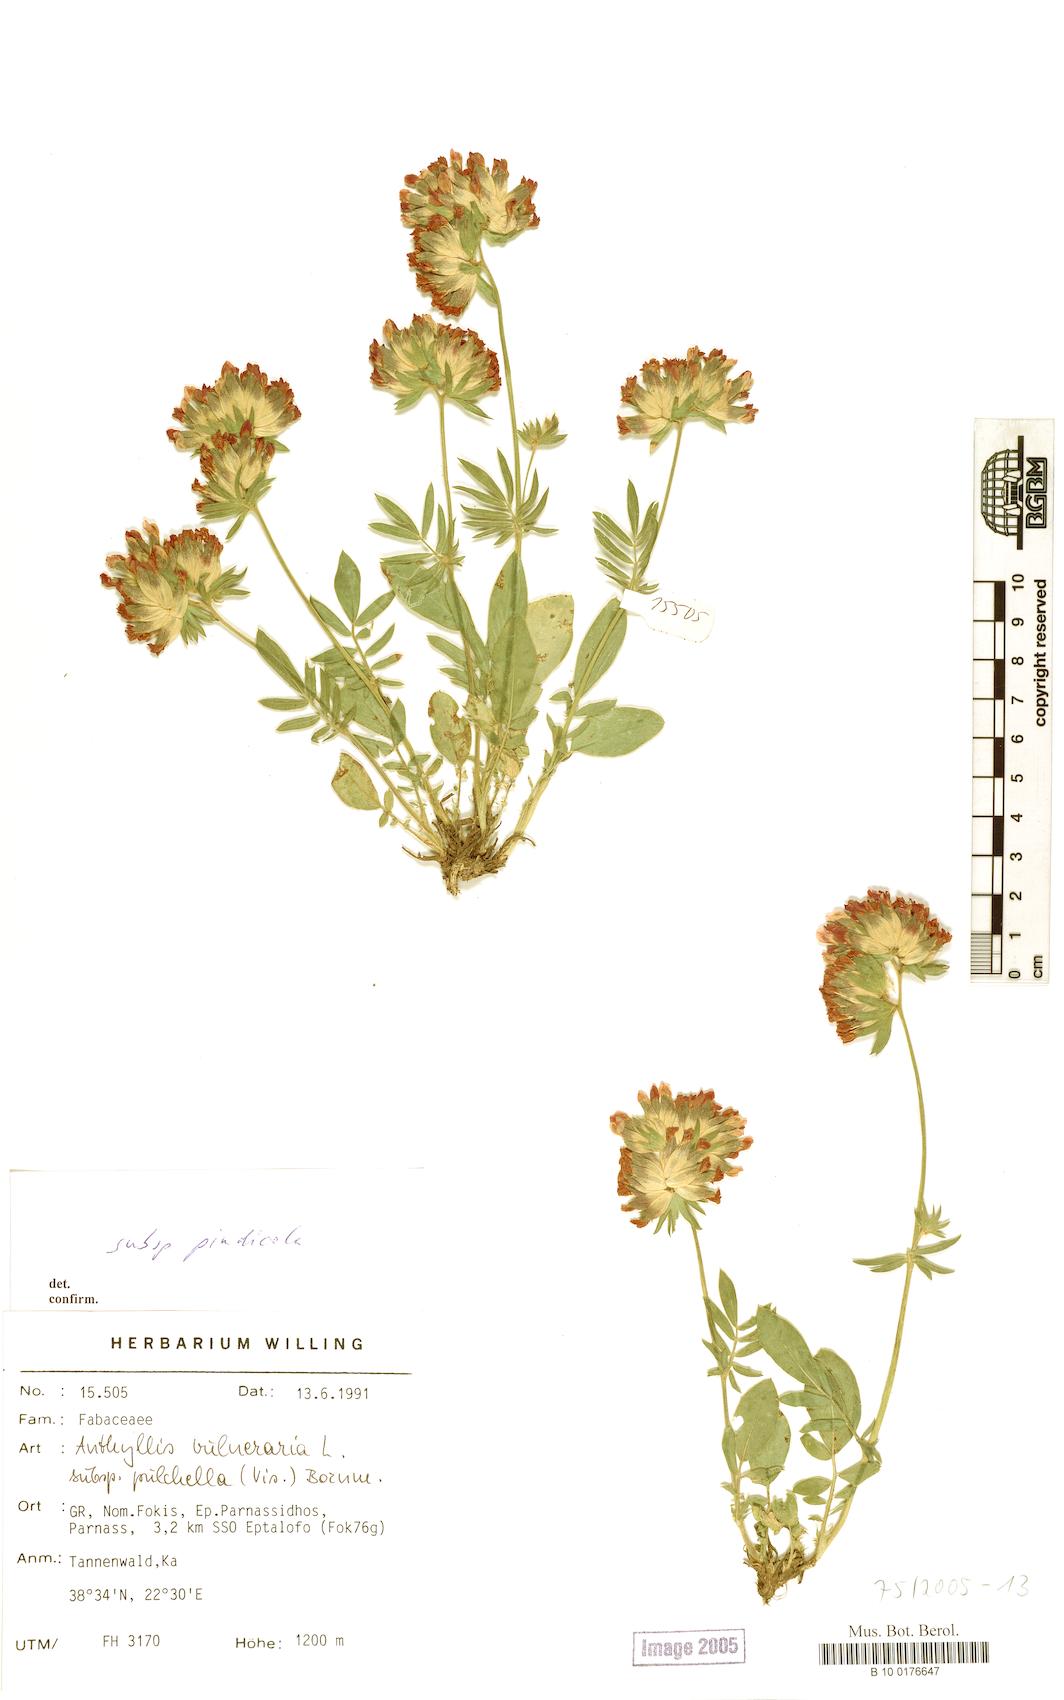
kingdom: Plantae
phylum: Tracheophyta
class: Magnoliopsida
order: Fabales
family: Fabaceae
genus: Anthyllis
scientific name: Anthyllis vulneraria
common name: Kidney vetch
